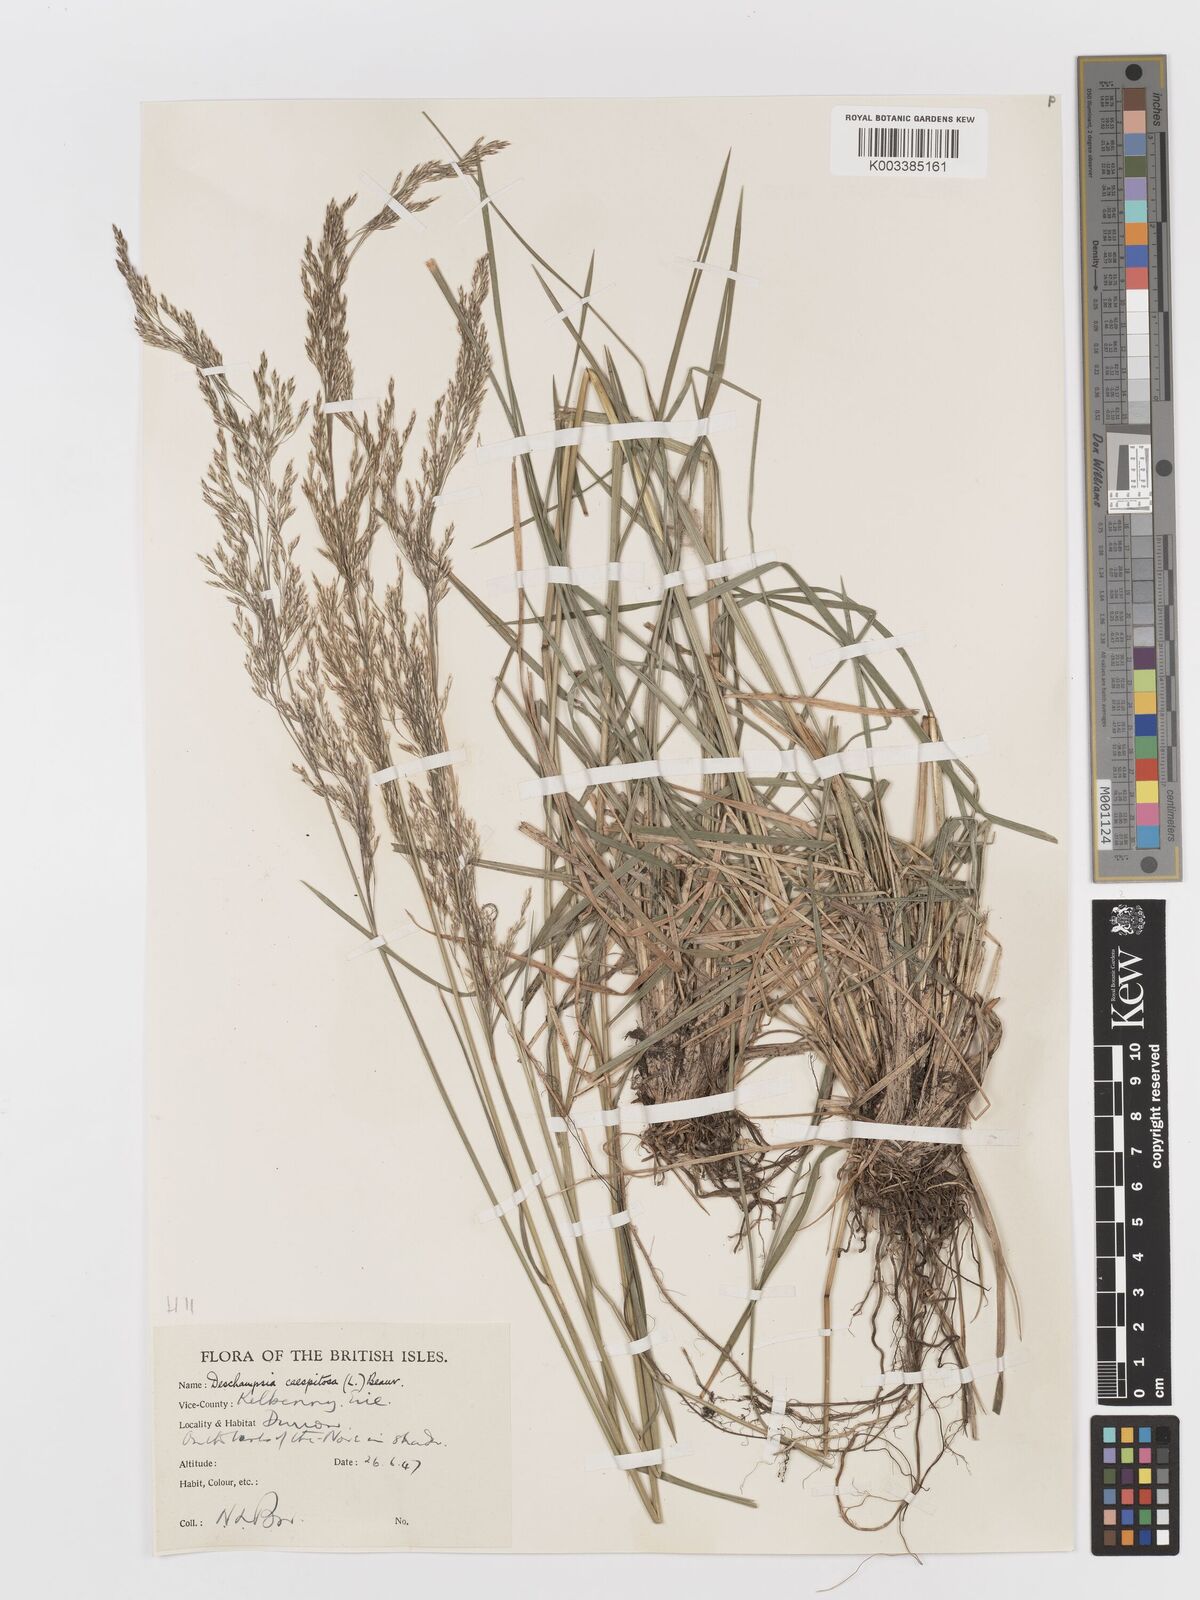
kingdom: Plantae
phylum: Tracheophyta
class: Liliopsida
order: Poales
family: Poaceae
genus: Deschampsia
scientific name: Deschampsia cespitosa
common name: Tufted hair-grass
